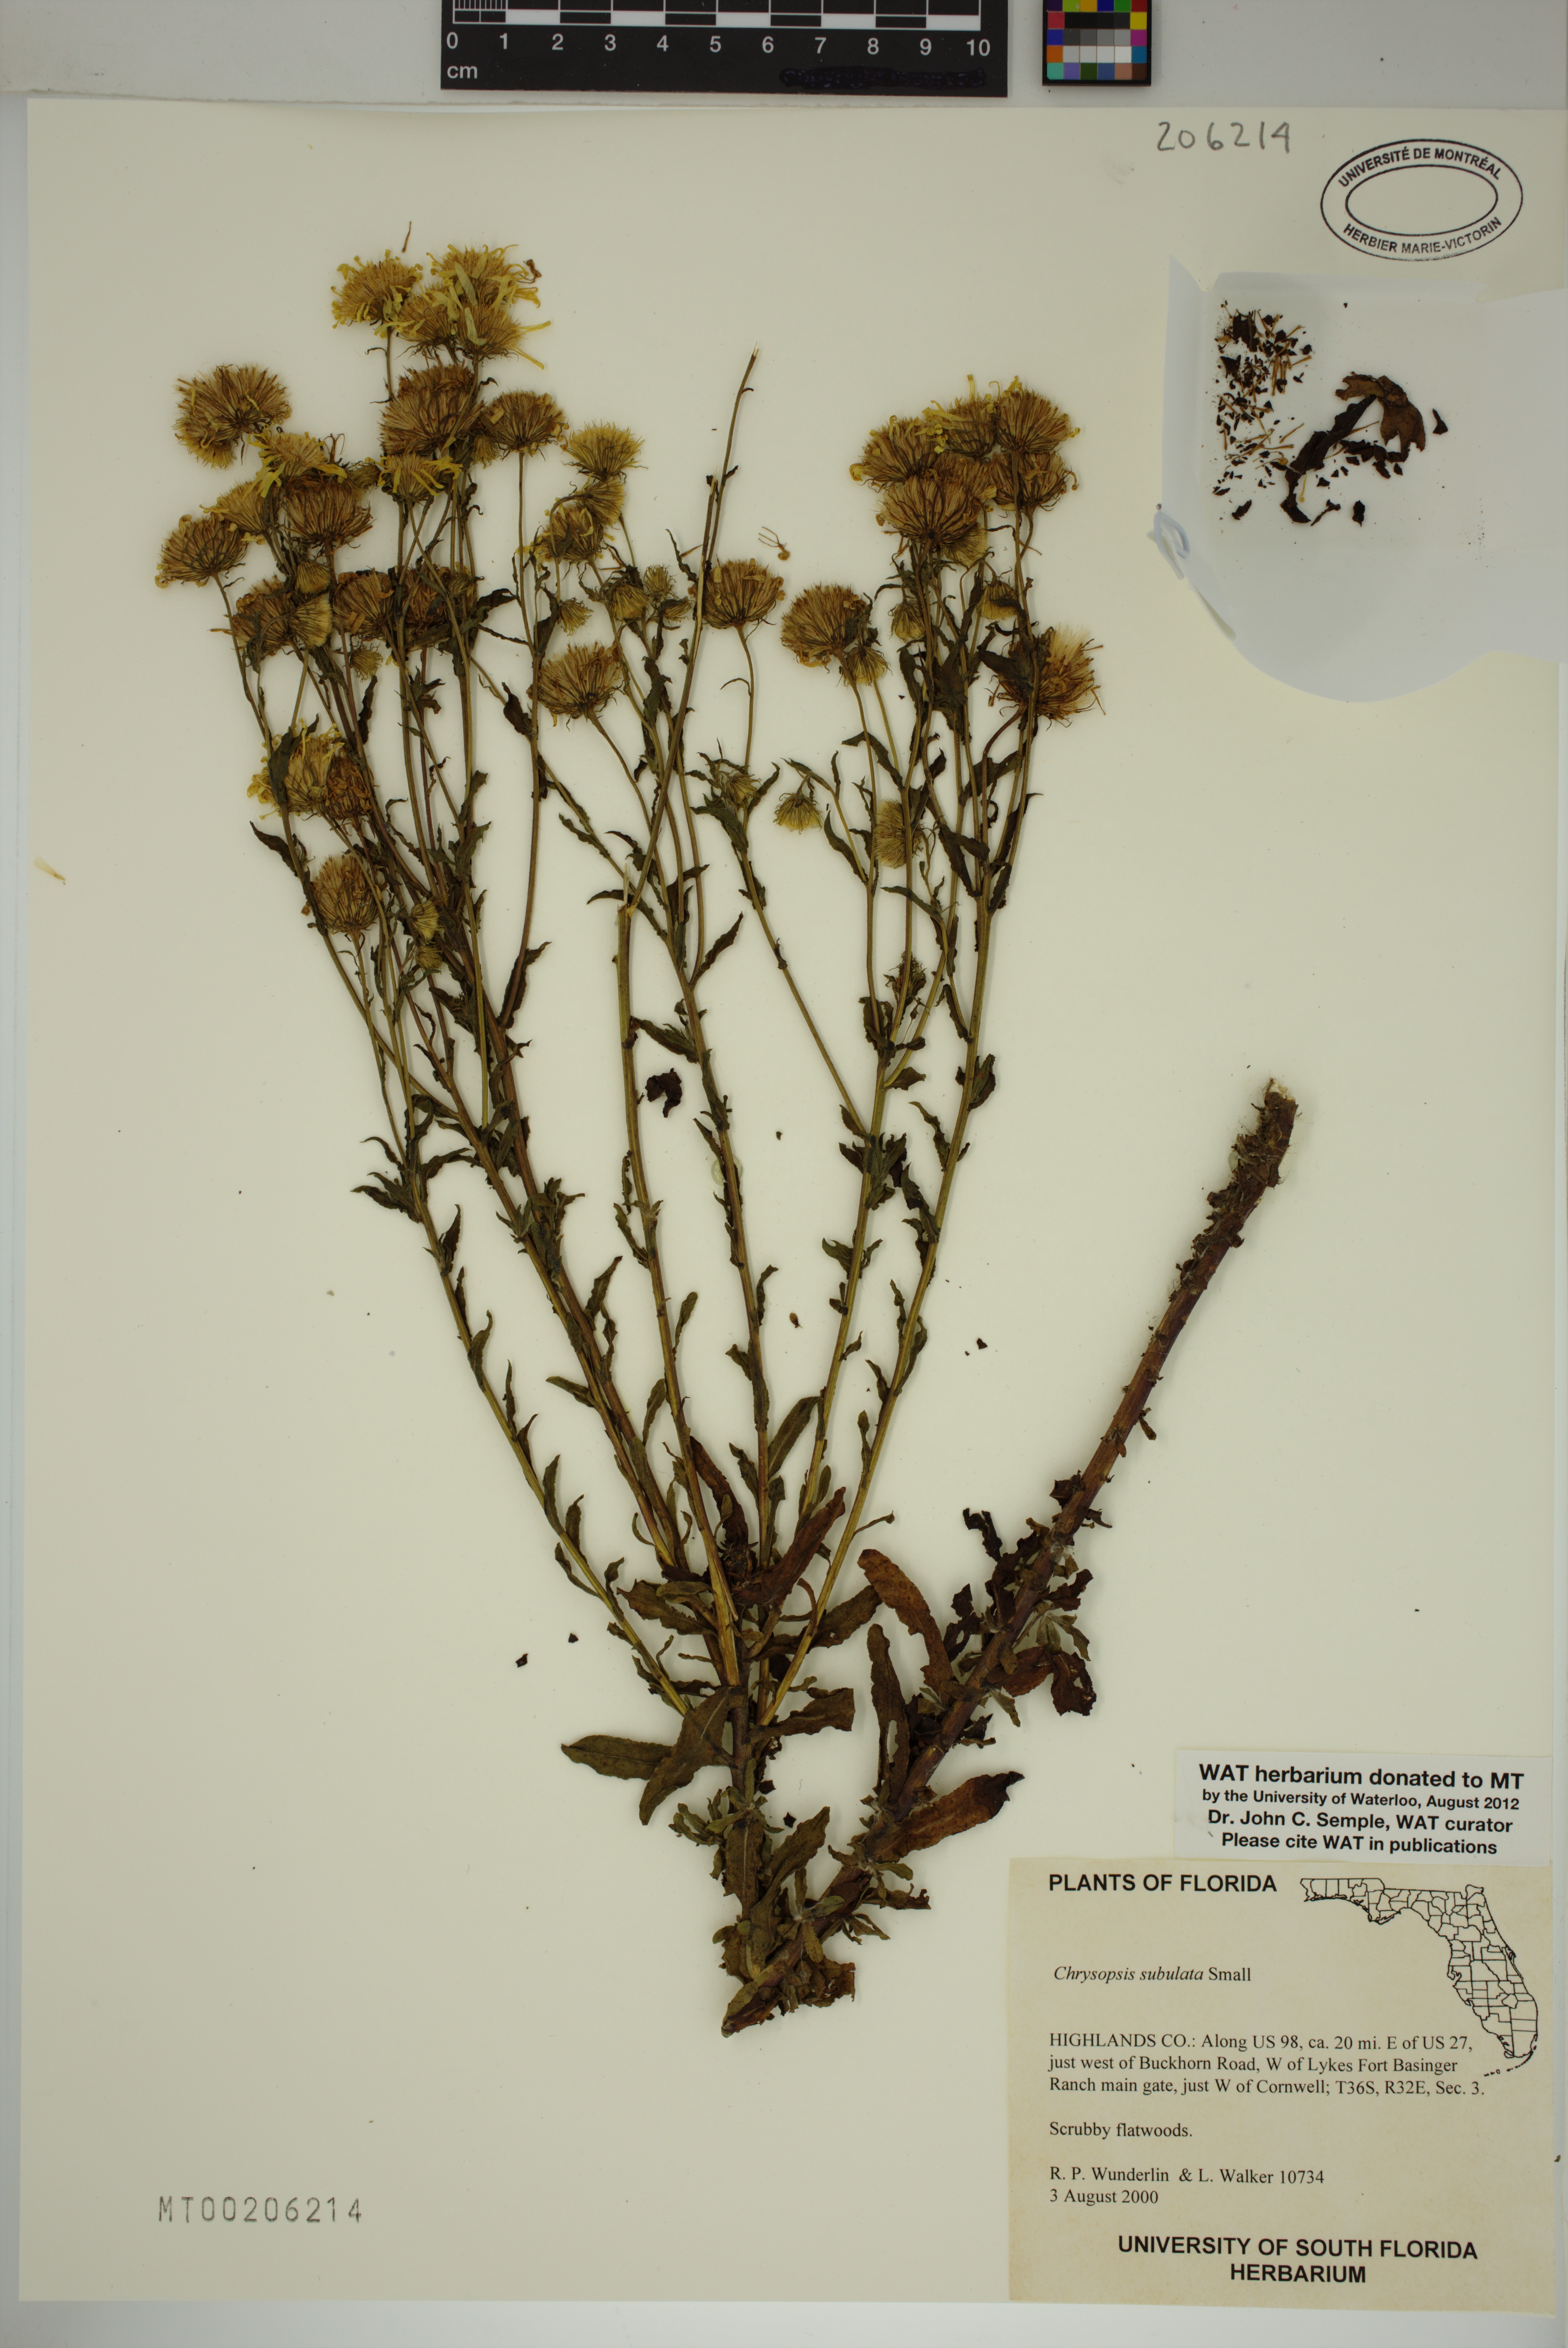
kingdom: Plantae
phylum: Tracheophyta
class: Magnoliopsida
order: Asterales
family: Asteraceae
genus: Chrysopsis
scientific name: Chrysopsis subulata
